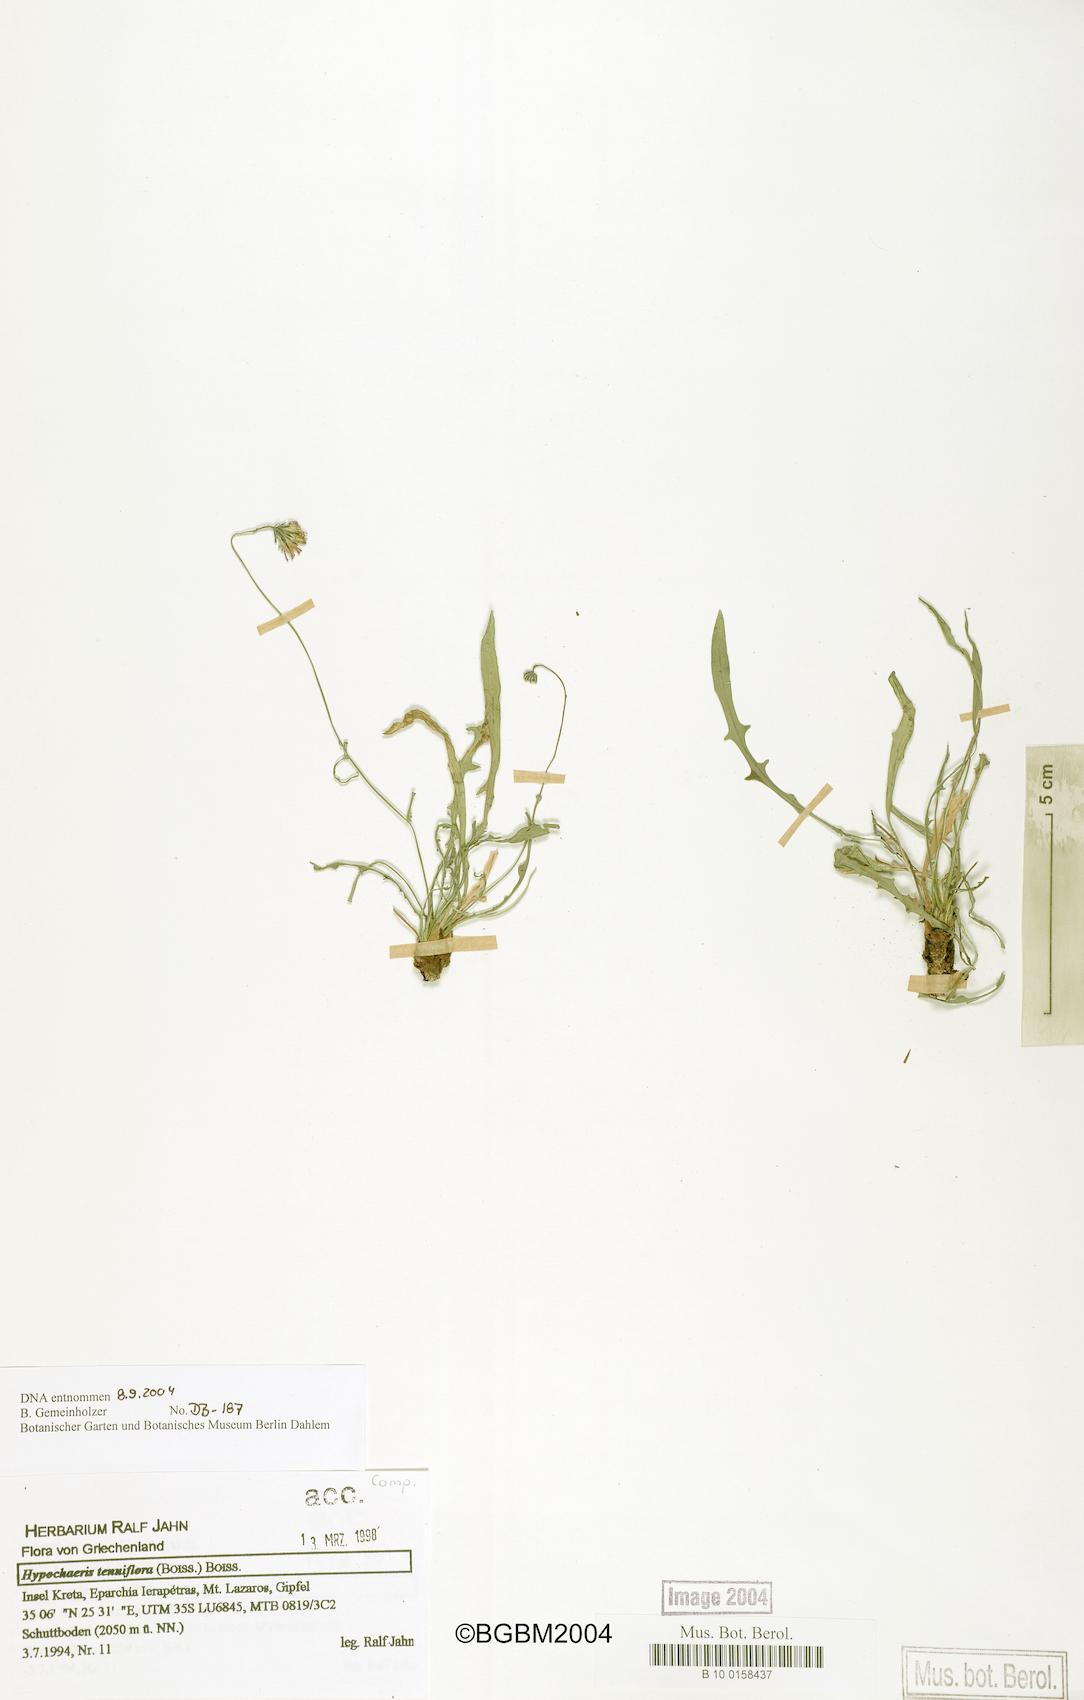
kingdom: Plantae
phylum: Tracheophyta
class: Magnoliopsida
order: Asterales
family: Asteraceae
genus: Hypochaeris
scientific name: Hypochaeris tenuiflora
